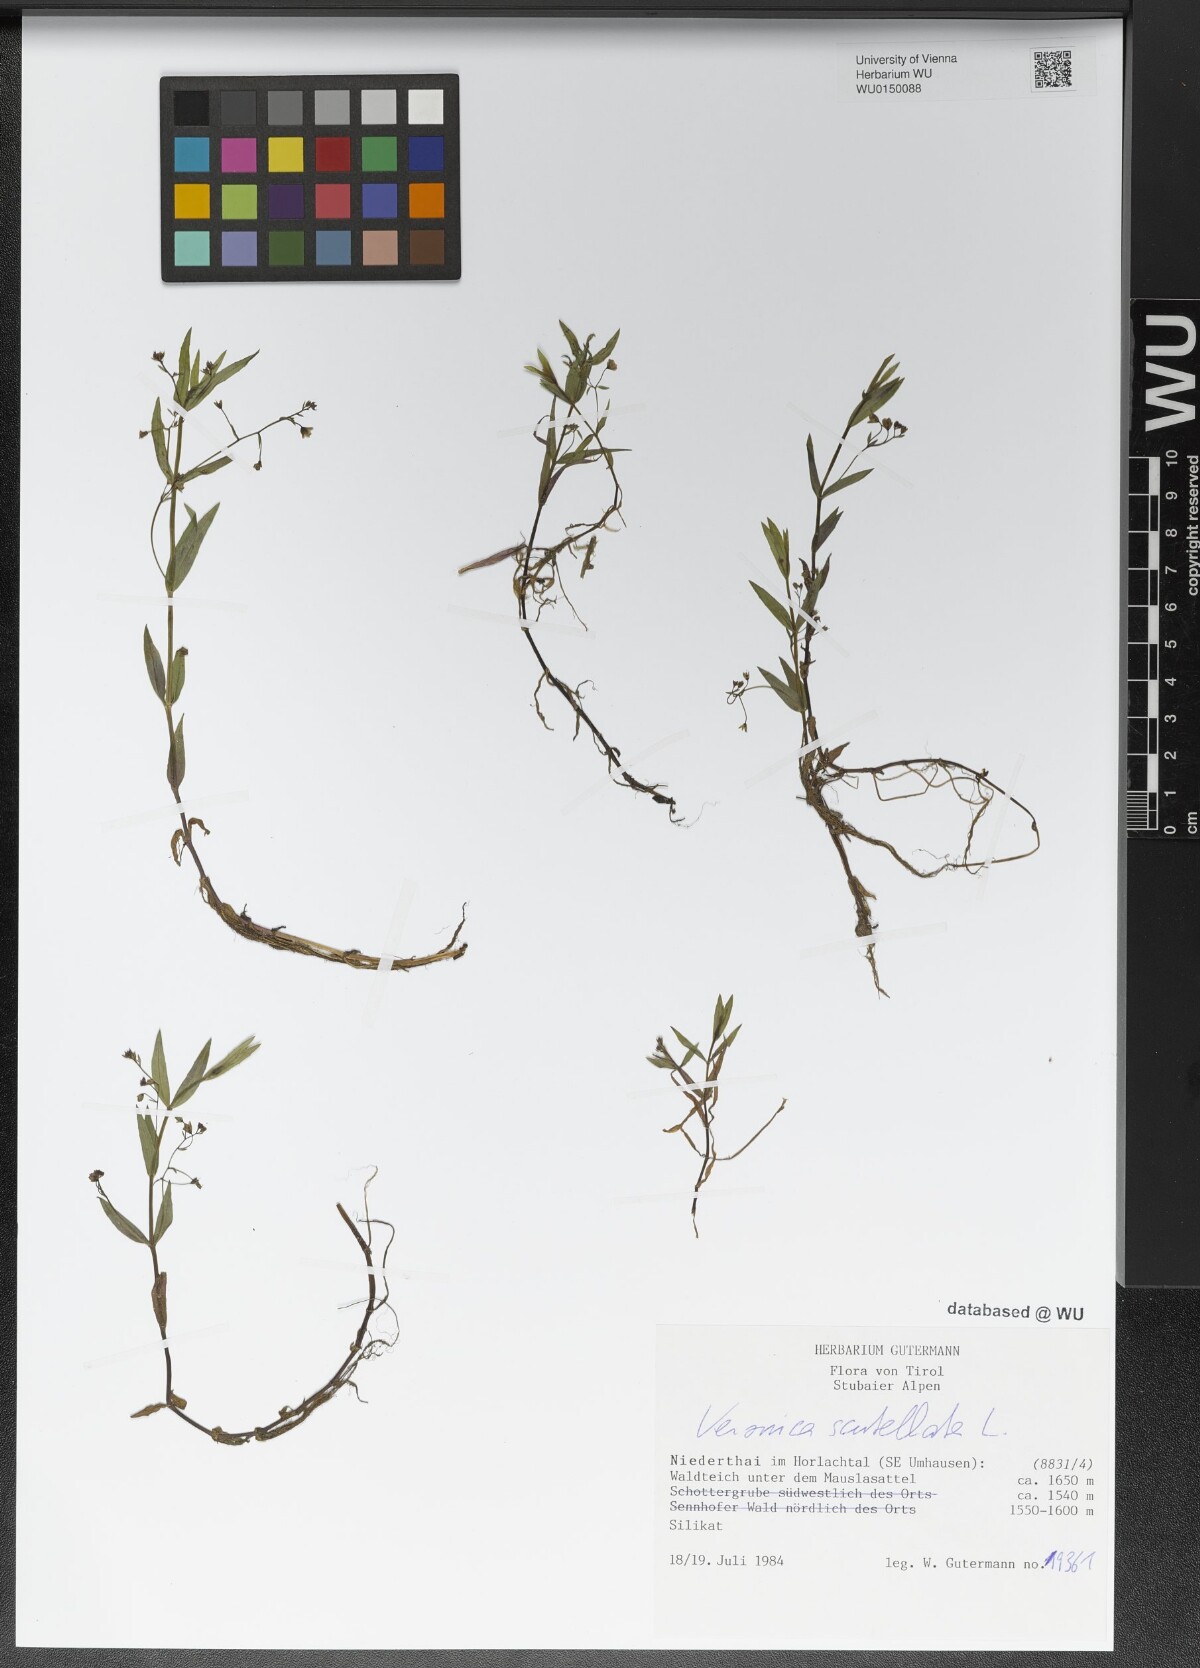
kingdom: Plantae
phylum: Tracheophyta
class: Magnoliopsida
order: Lamiales
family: Plantaginaceae
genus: Veronica
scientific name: Veronica scutellata
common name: Marsh speedwell
